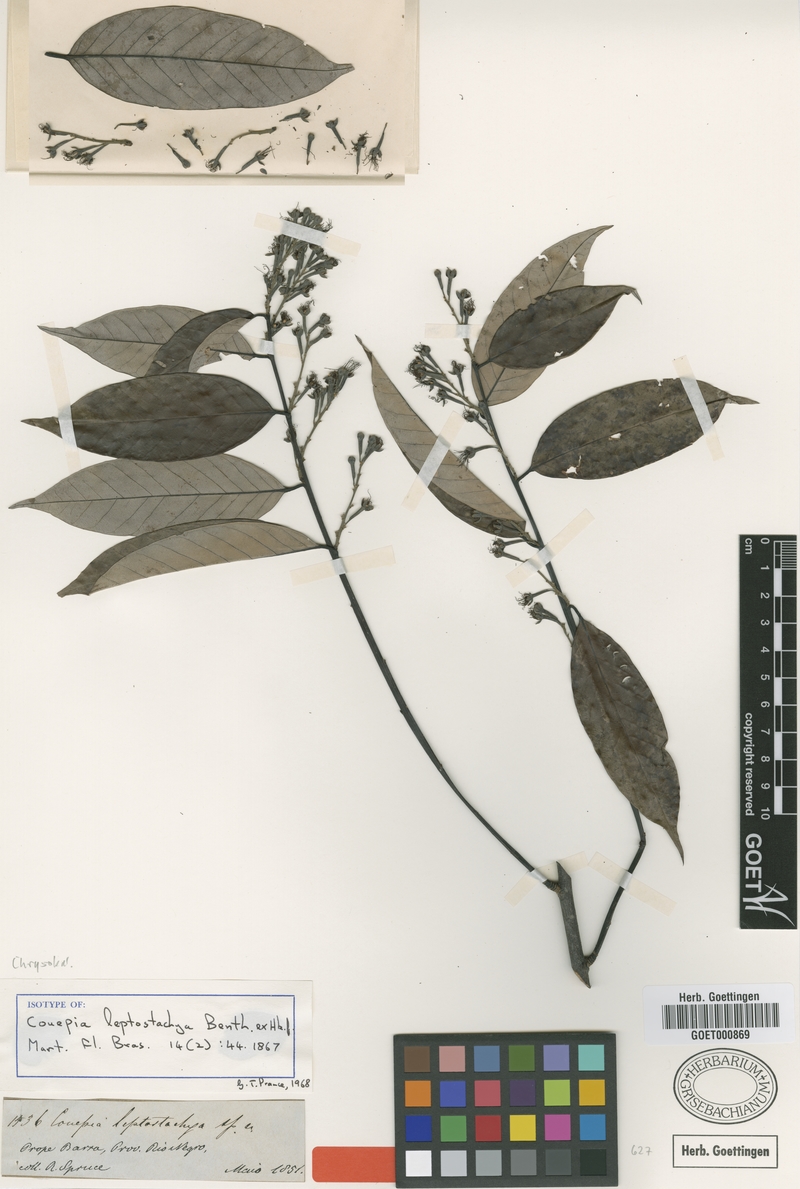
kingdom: Plantae
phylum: Tracheophyta
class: Magnoliopsida
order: Malpighiales
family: Chrysobalanaceae
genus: Couepia
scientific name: Couepia guianensis
